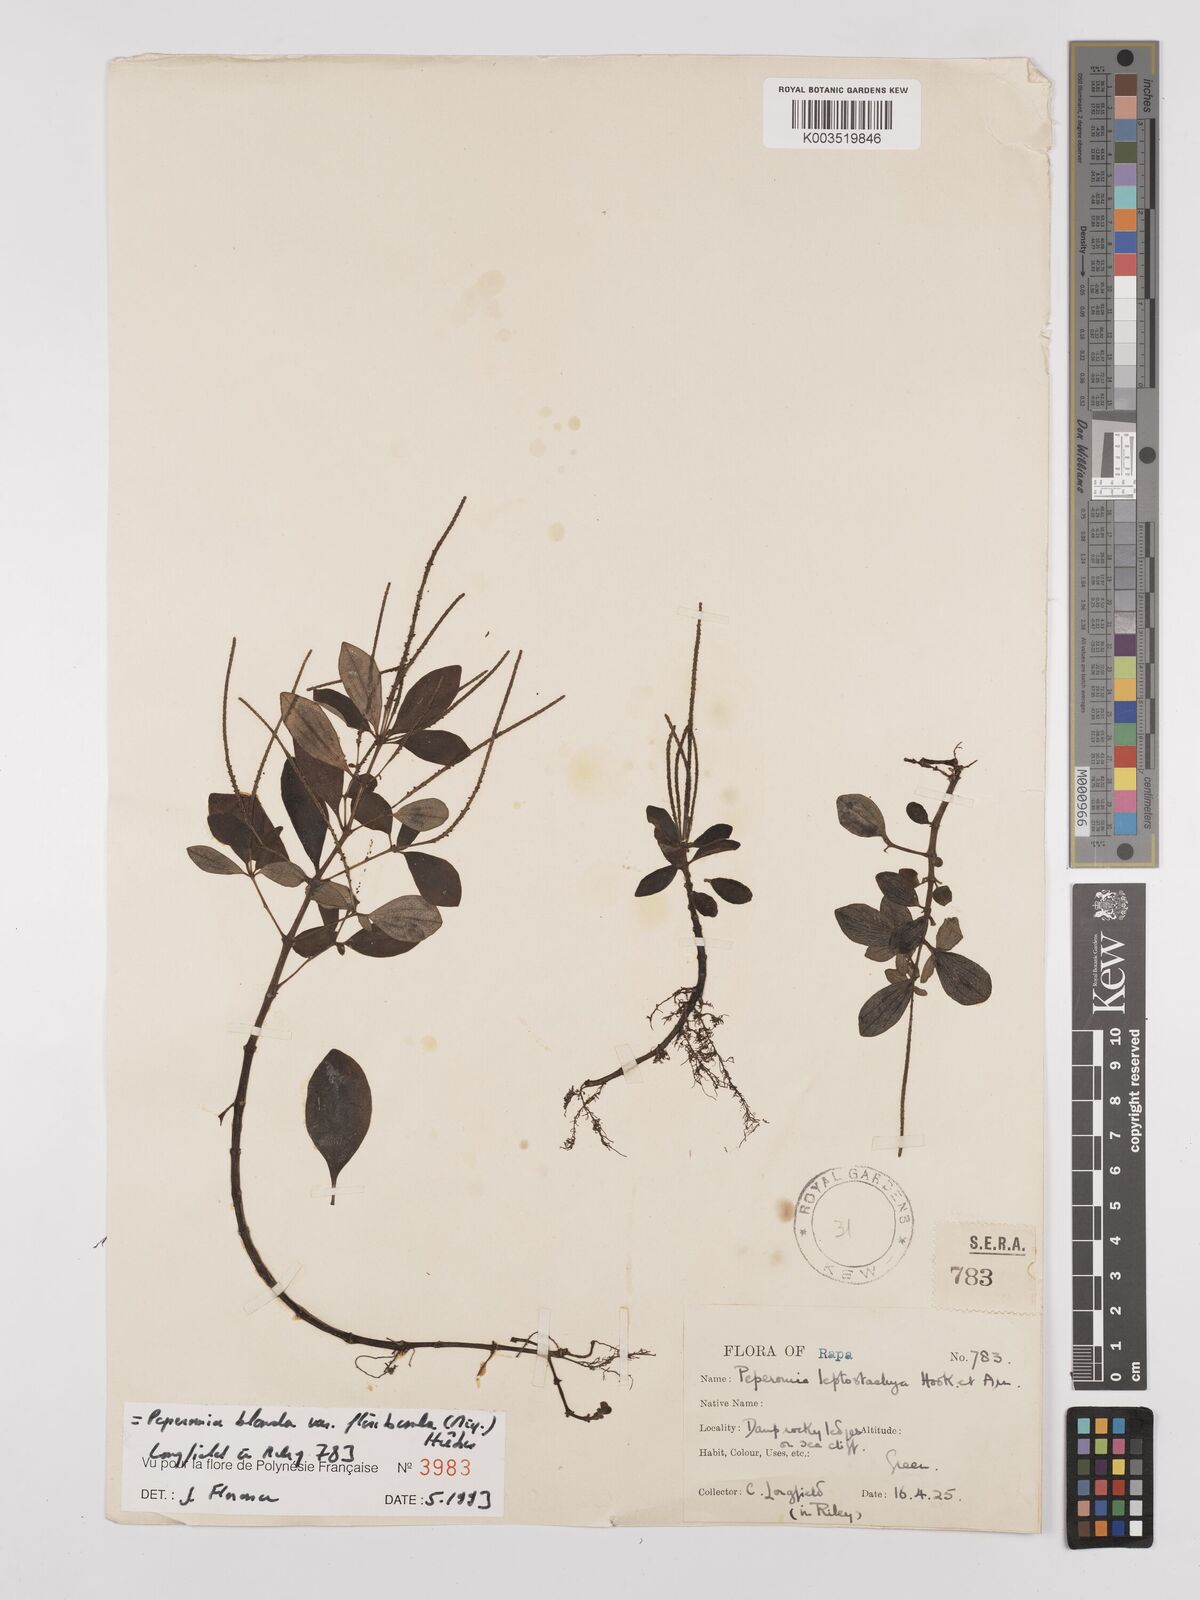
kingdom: Plantae
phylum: Tracheophyta
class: Magnoliopsida
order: Piperales
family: Piperaceae
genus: Peperomia
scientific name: Peperomia leptostachya
